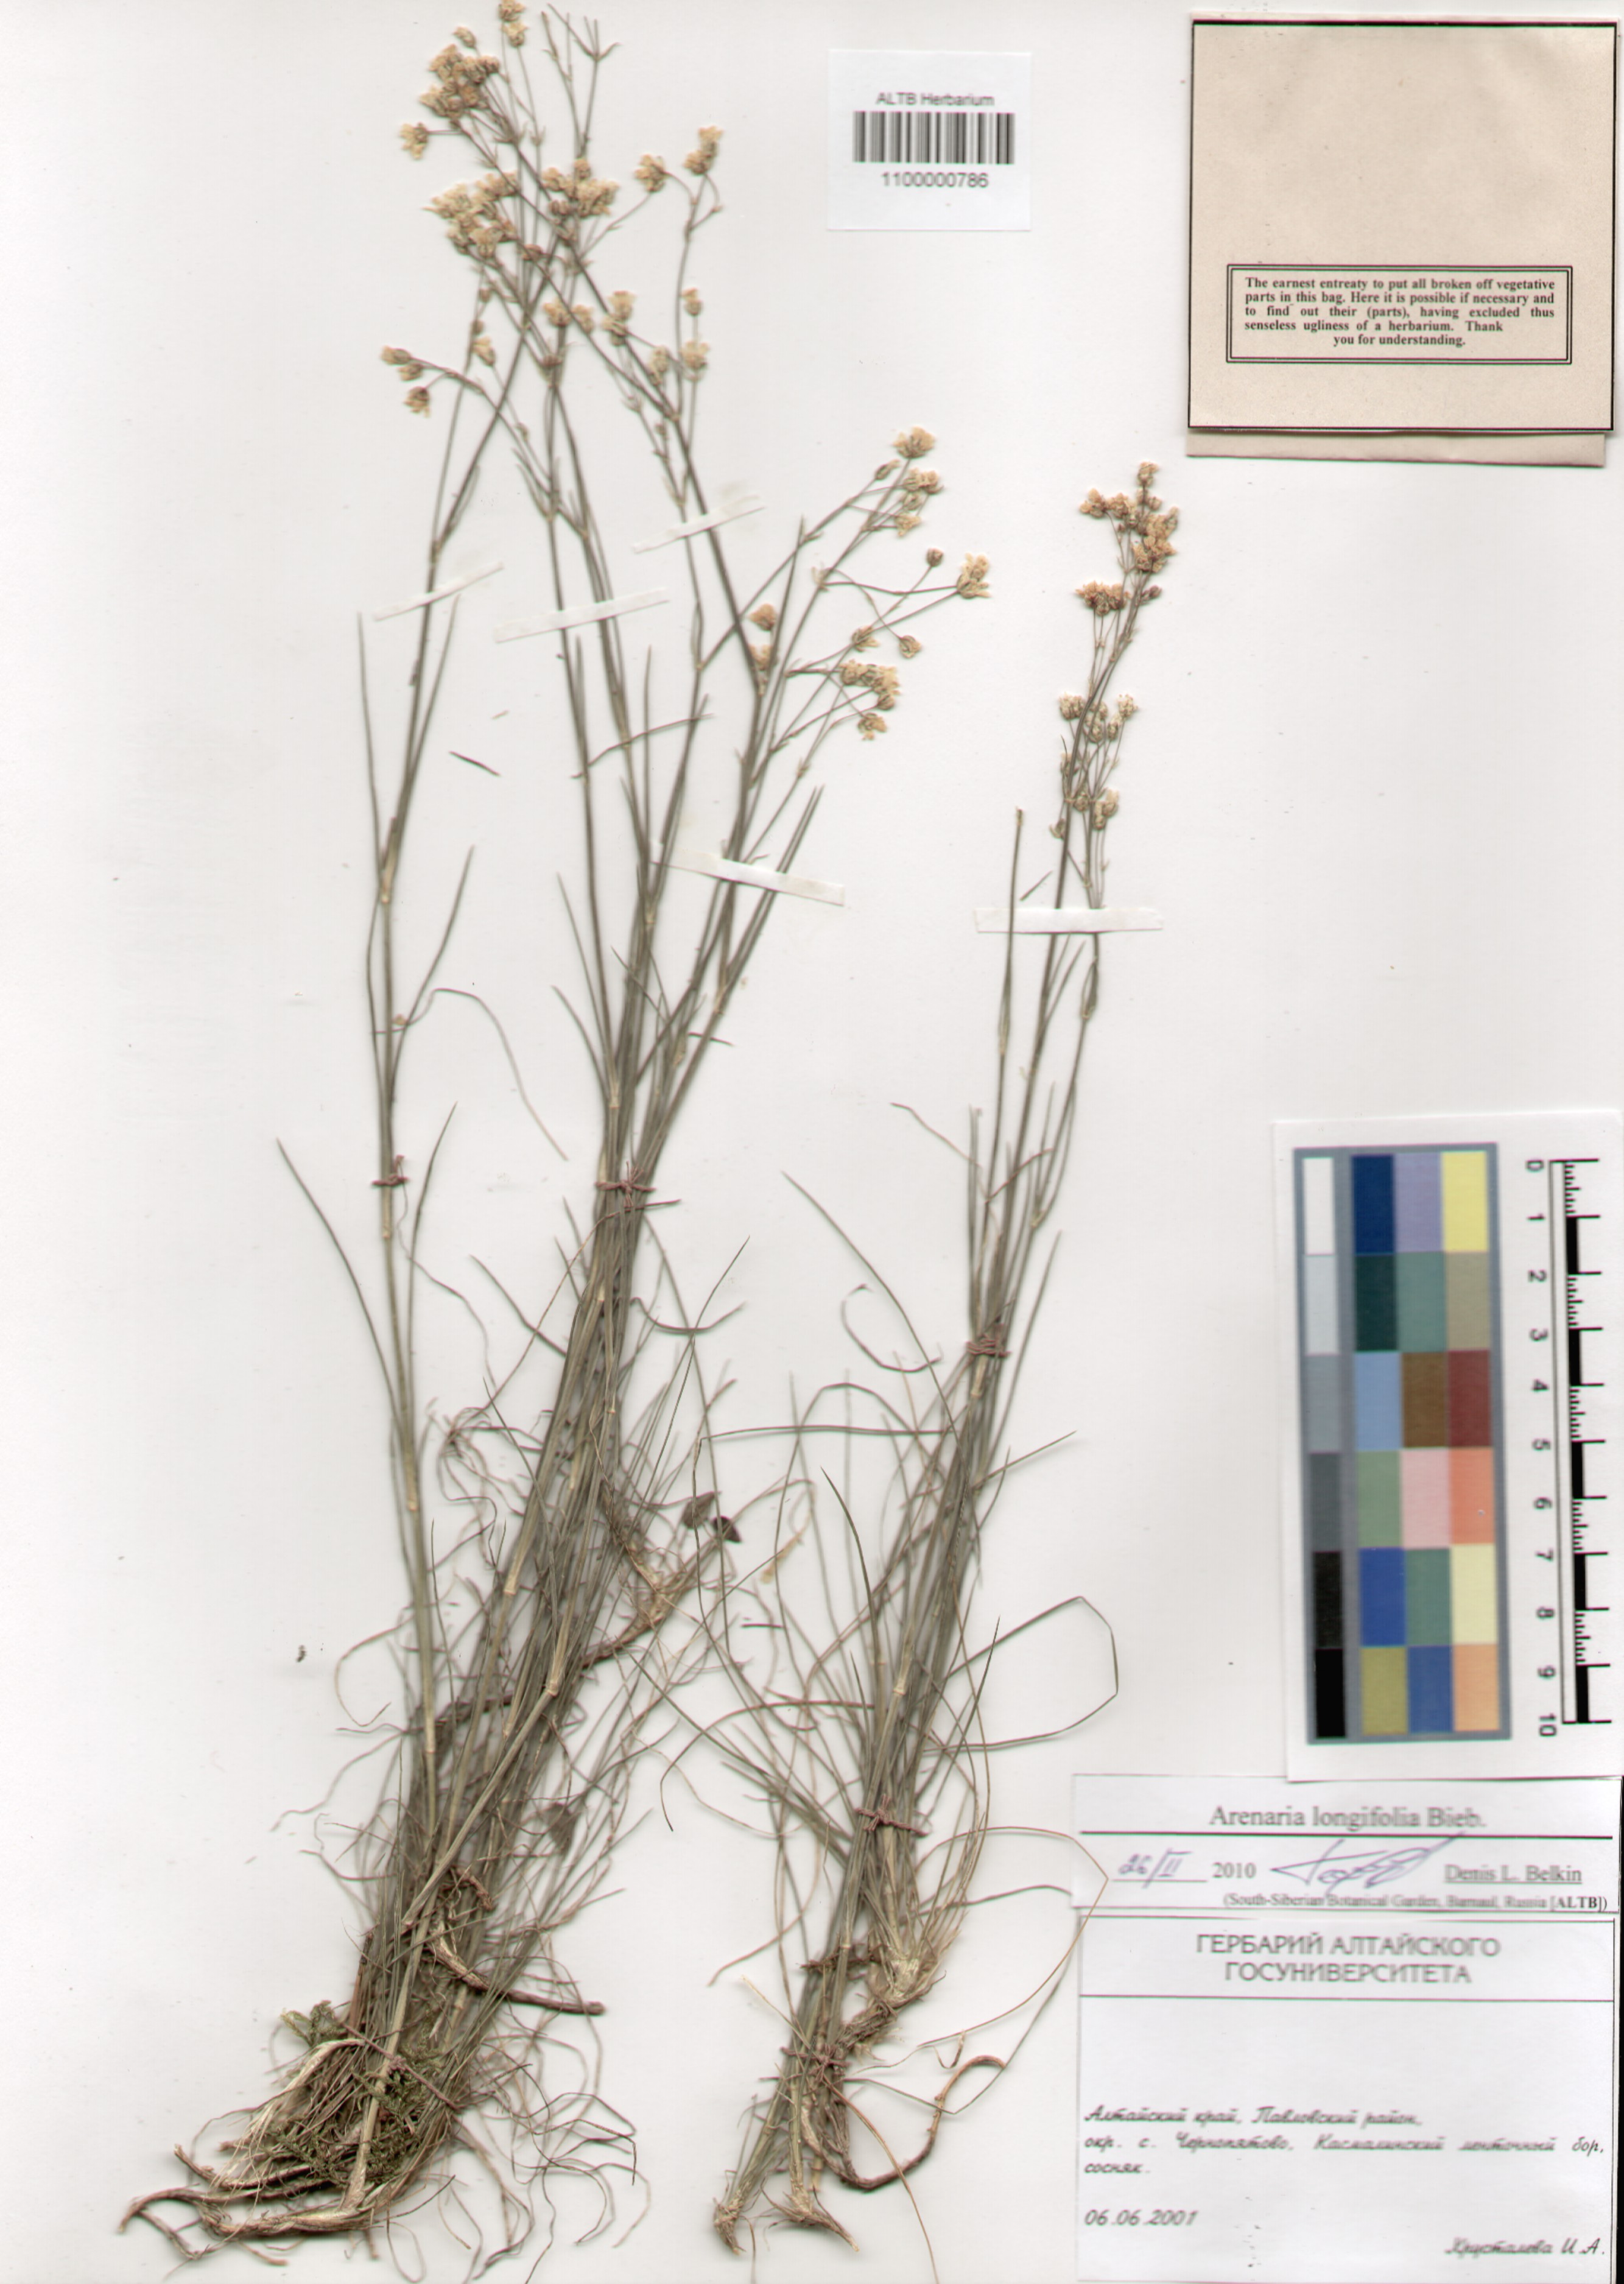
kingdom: Plantae
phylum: Tracheophyta
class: Magnoliopsida
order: Caryophyllales
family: Caryophyllaceae
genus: Eremogone
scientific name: Eremogone longifolia
